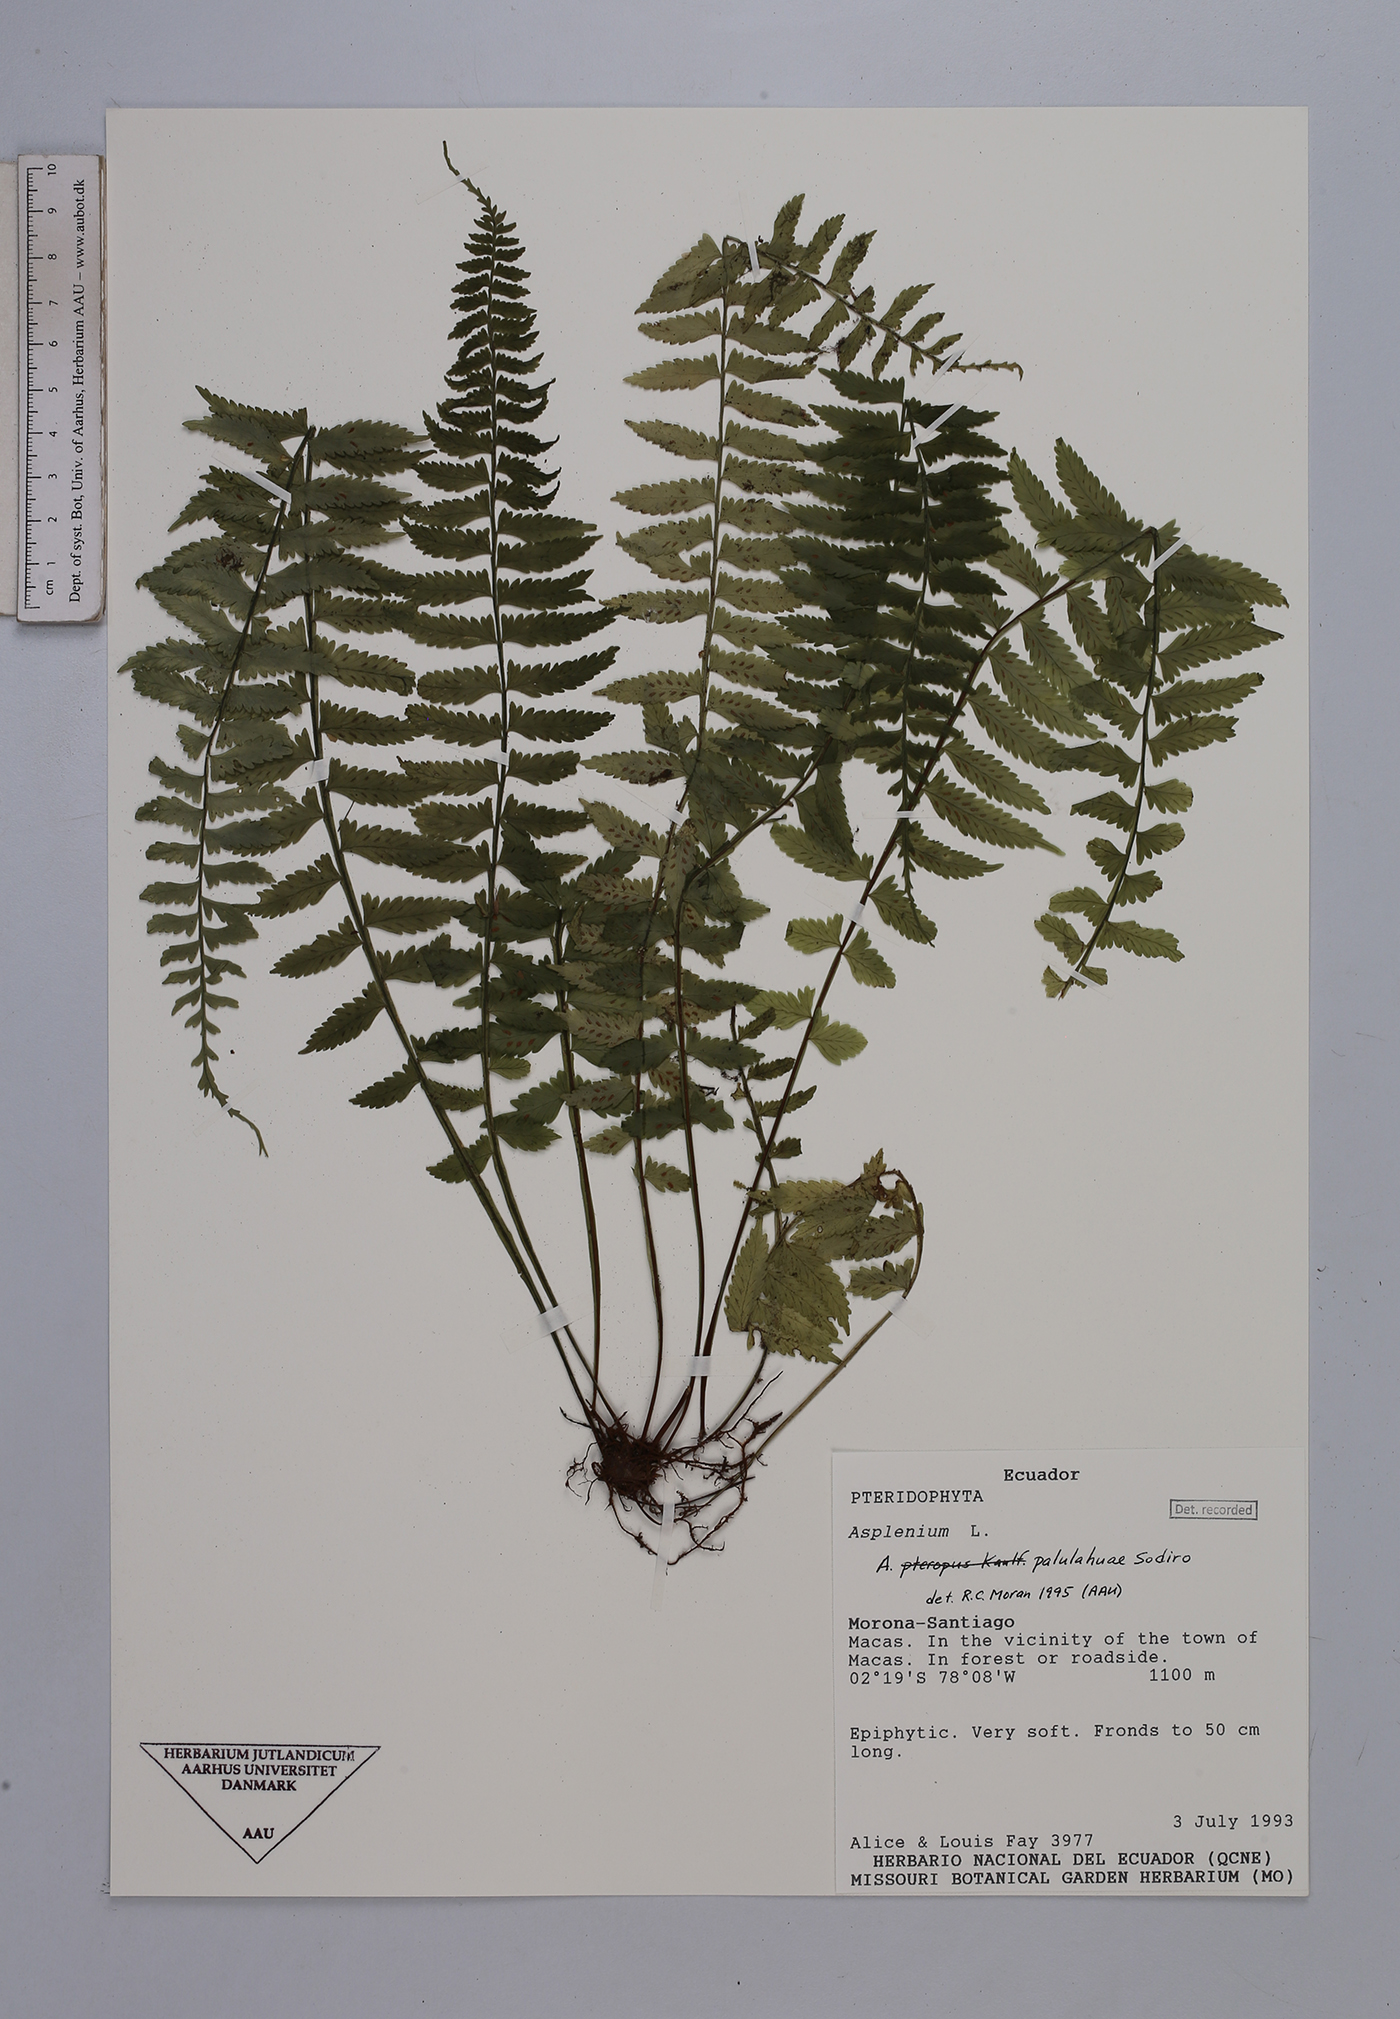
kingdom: Plantae
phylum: Tracheophyta
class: Polypodiopsida
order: Polypodiales
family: Aspleniaceae
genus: Asplenium
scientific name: Asplenium pululahuae
